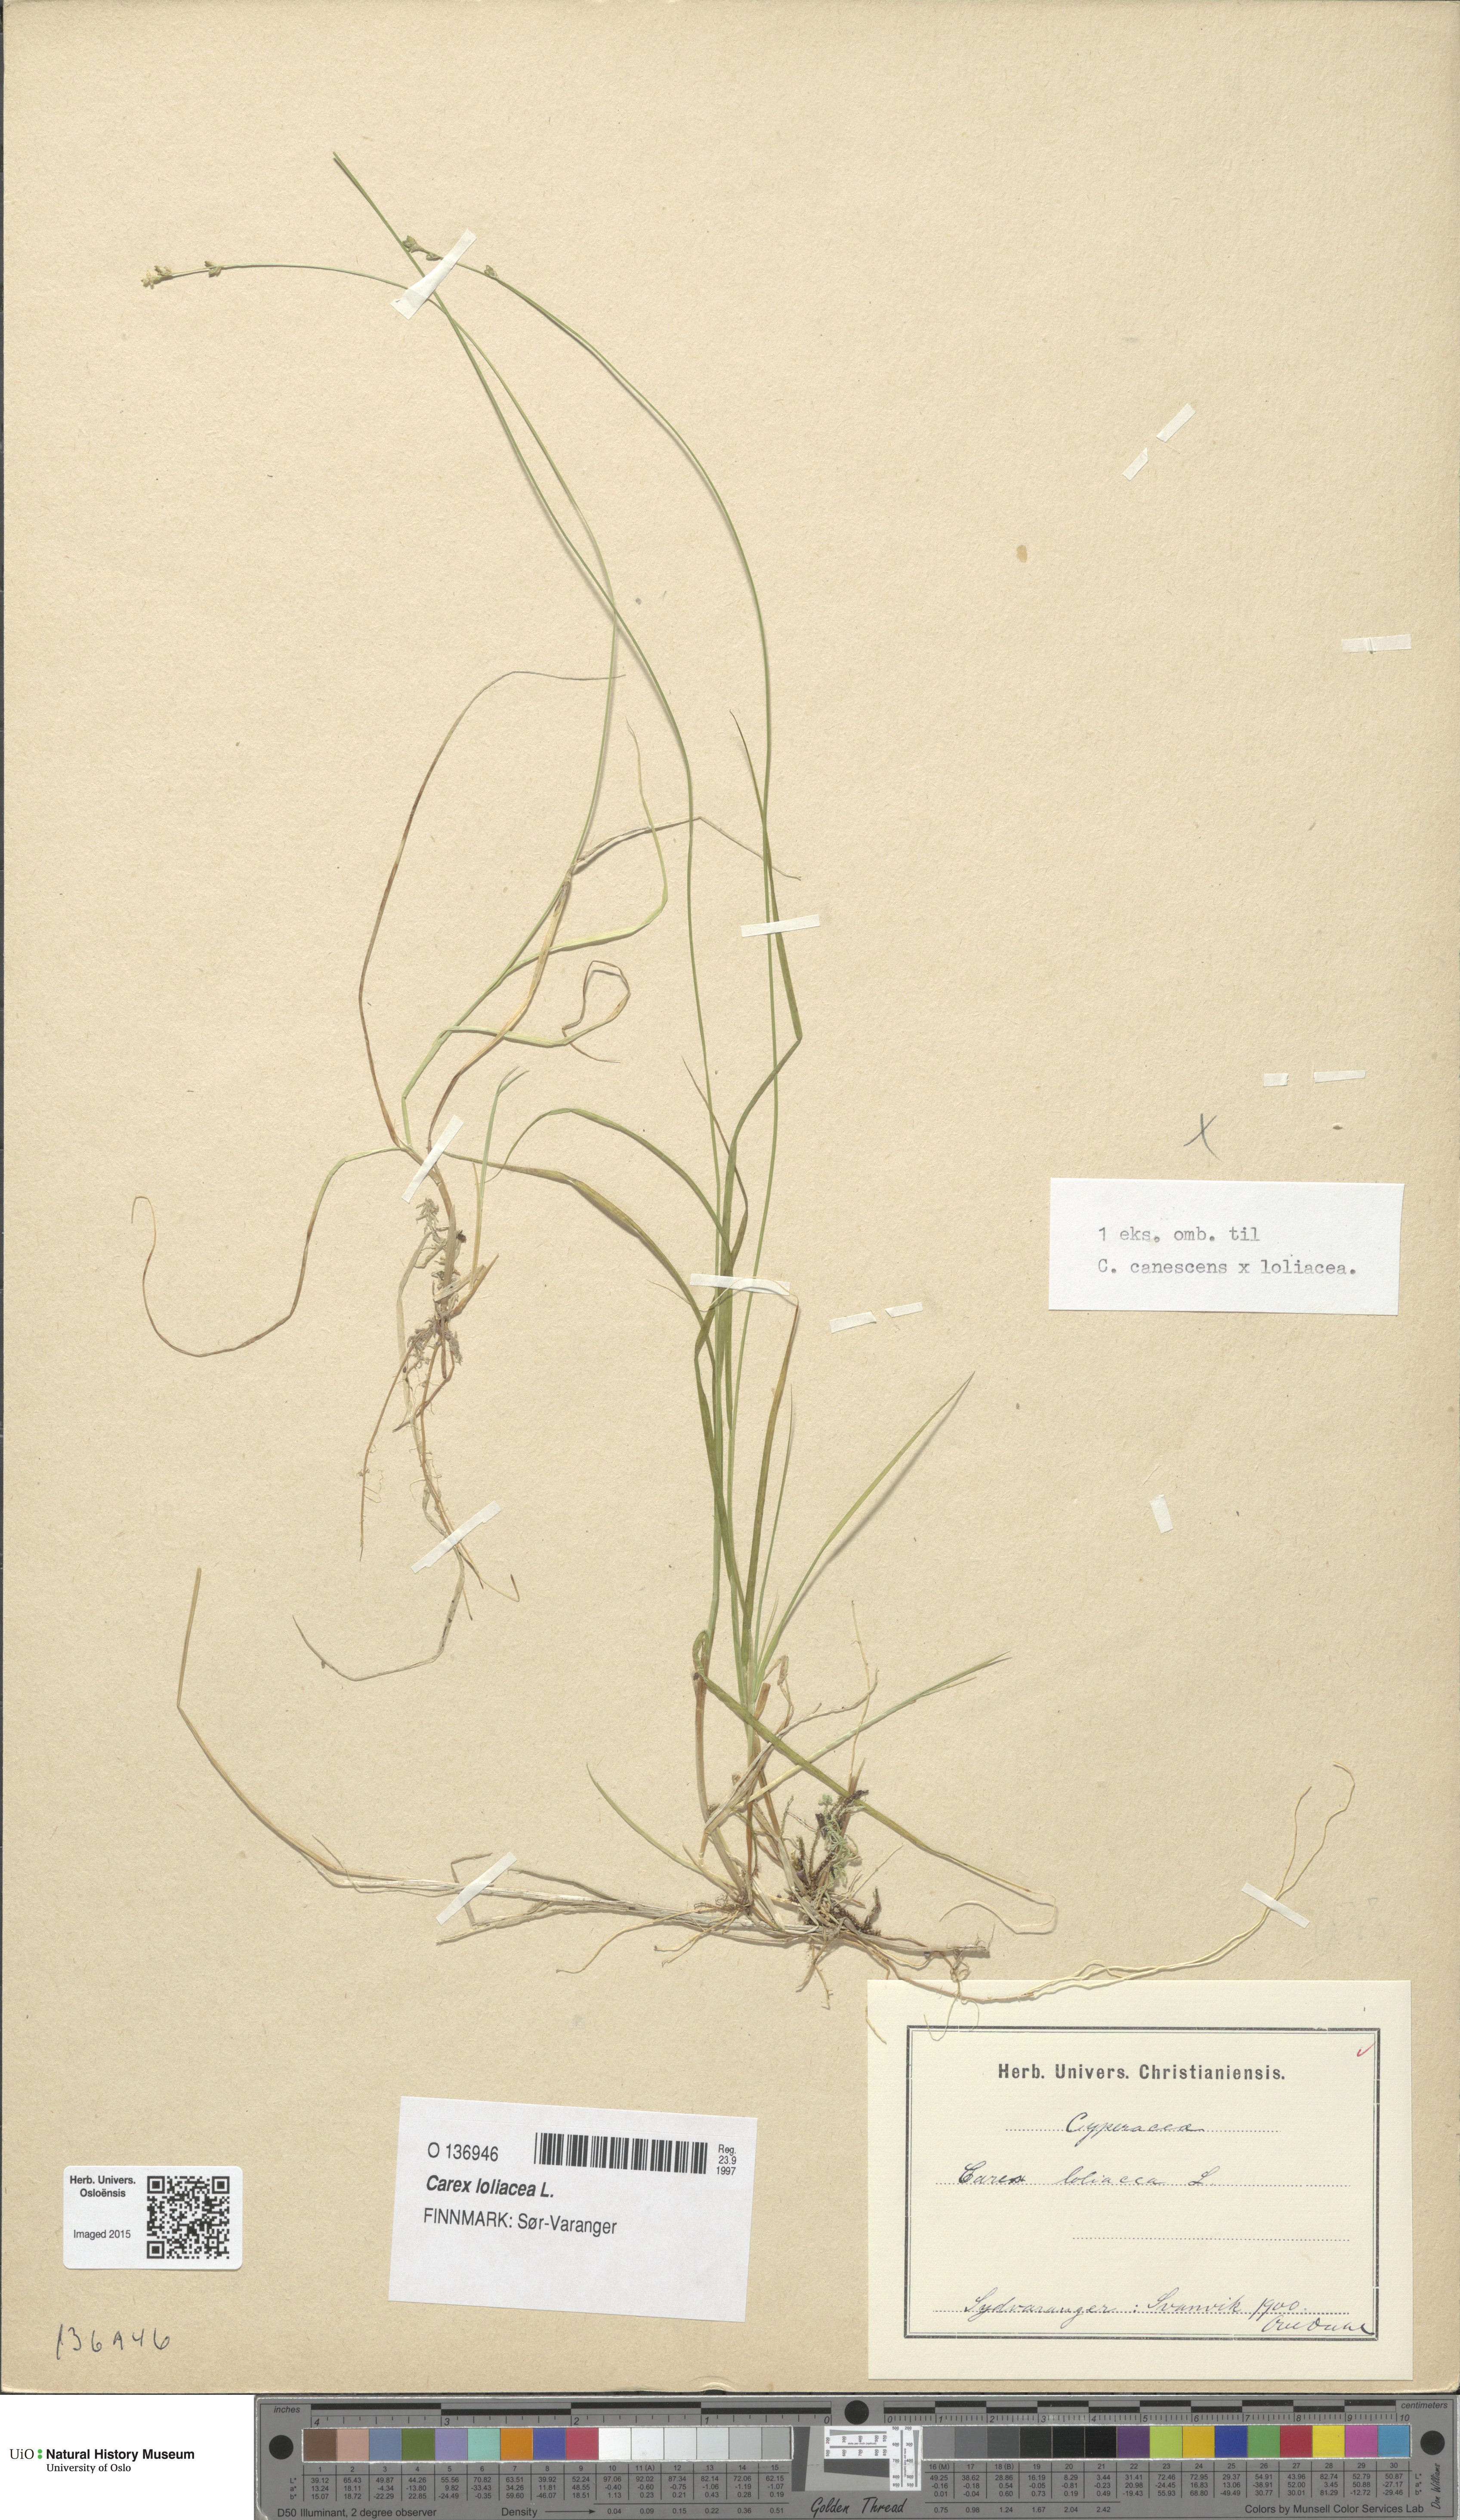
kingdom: Plantae
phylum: Tracheophyta
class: Liliopsida
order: Poales
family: Cyperaceae
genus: Carex
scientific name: Carex loliacea
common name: Ryegrass sedge
